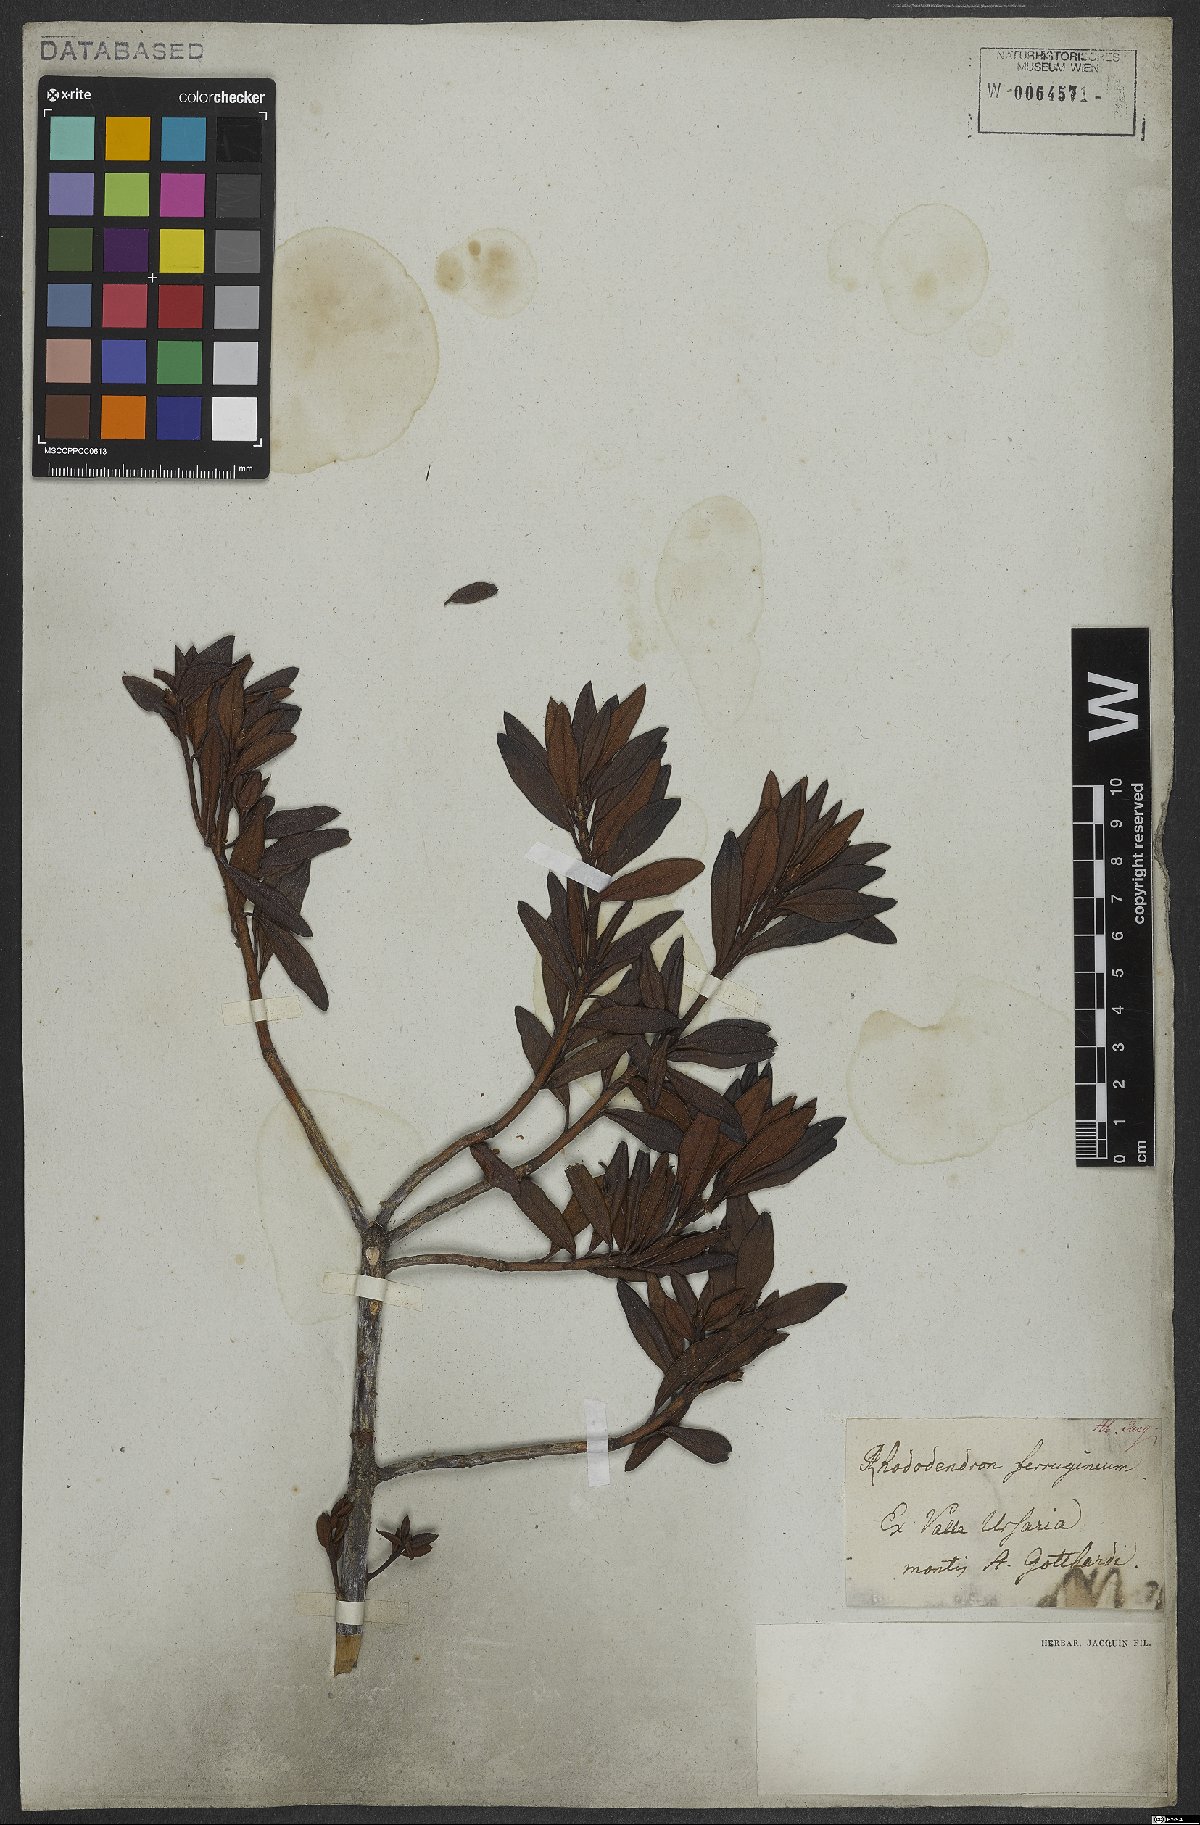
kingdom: Plantae
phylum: Tracheophyta
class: Magnoliopsida
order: Ericales
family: Ericaceae
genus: Rhododendron
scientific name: Rhododendron ferrugineum
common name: Alpenrose
